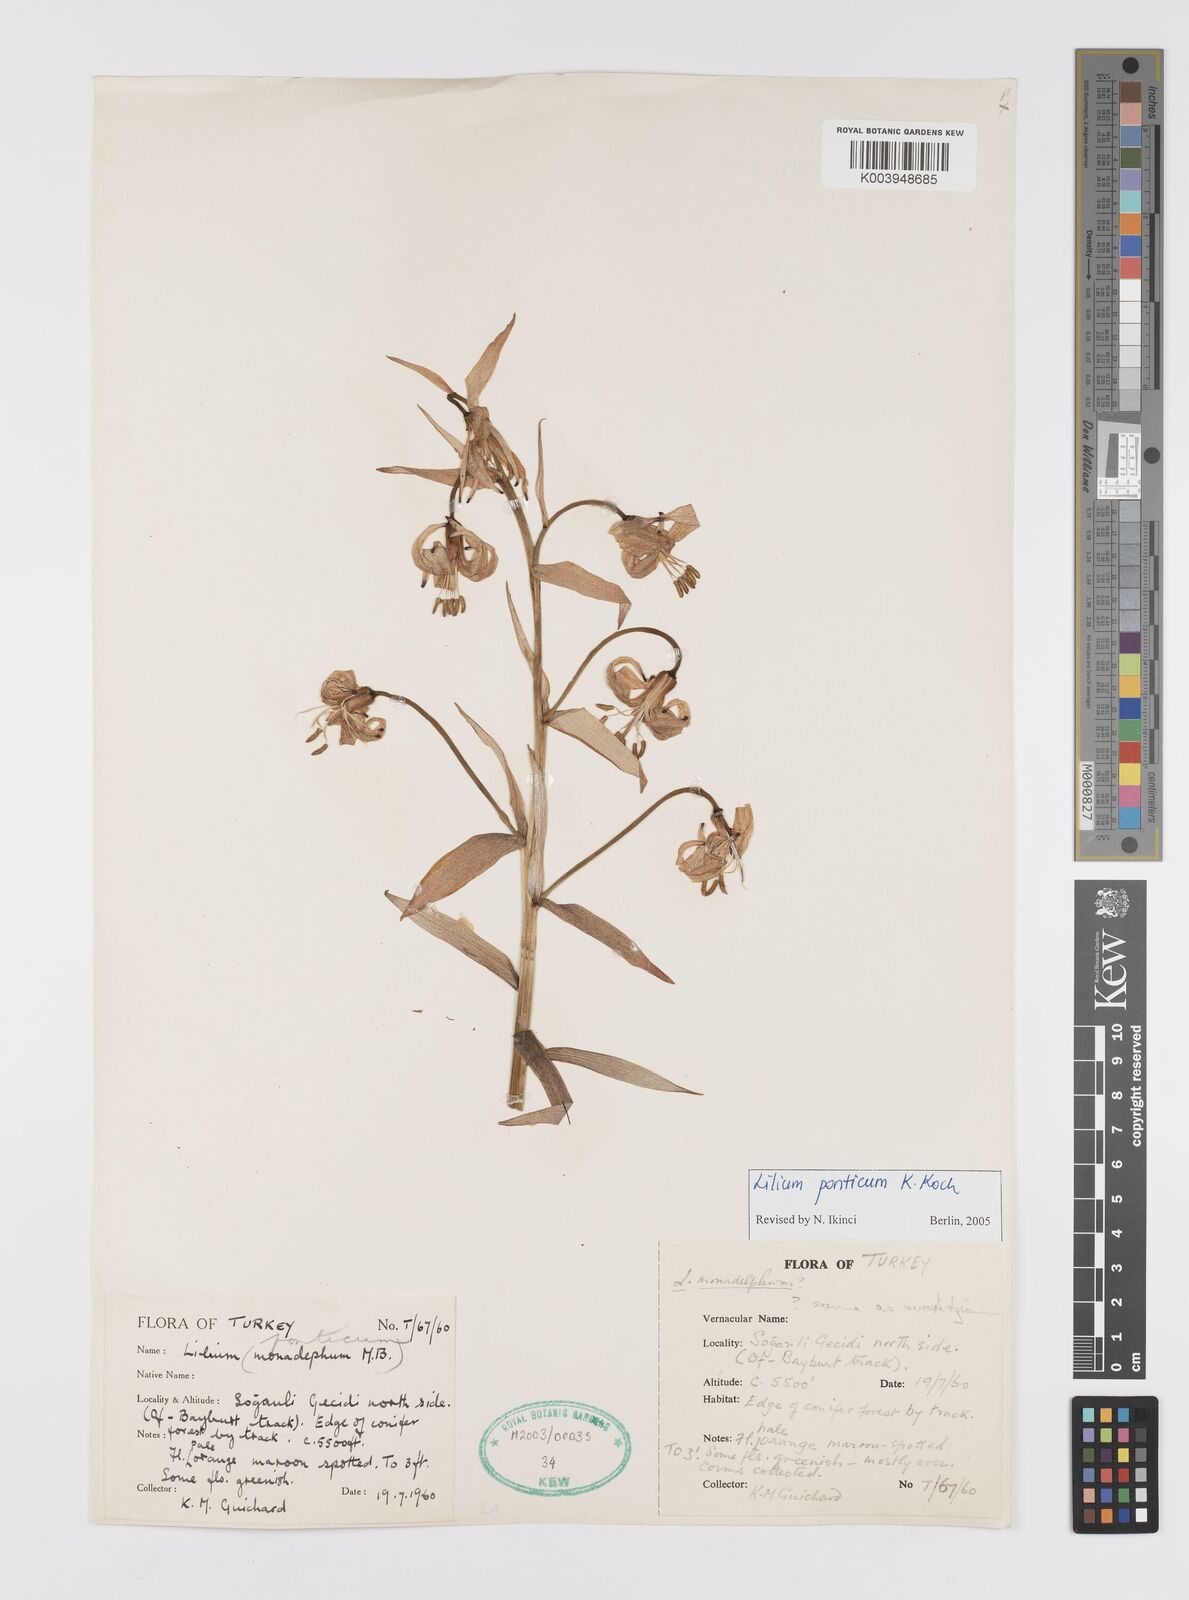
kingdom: Plantae
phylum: Tracheophyta
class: Liliopsida
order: Liliales
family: Liliaceae
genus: Lilium
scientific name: Lilium ponticum
